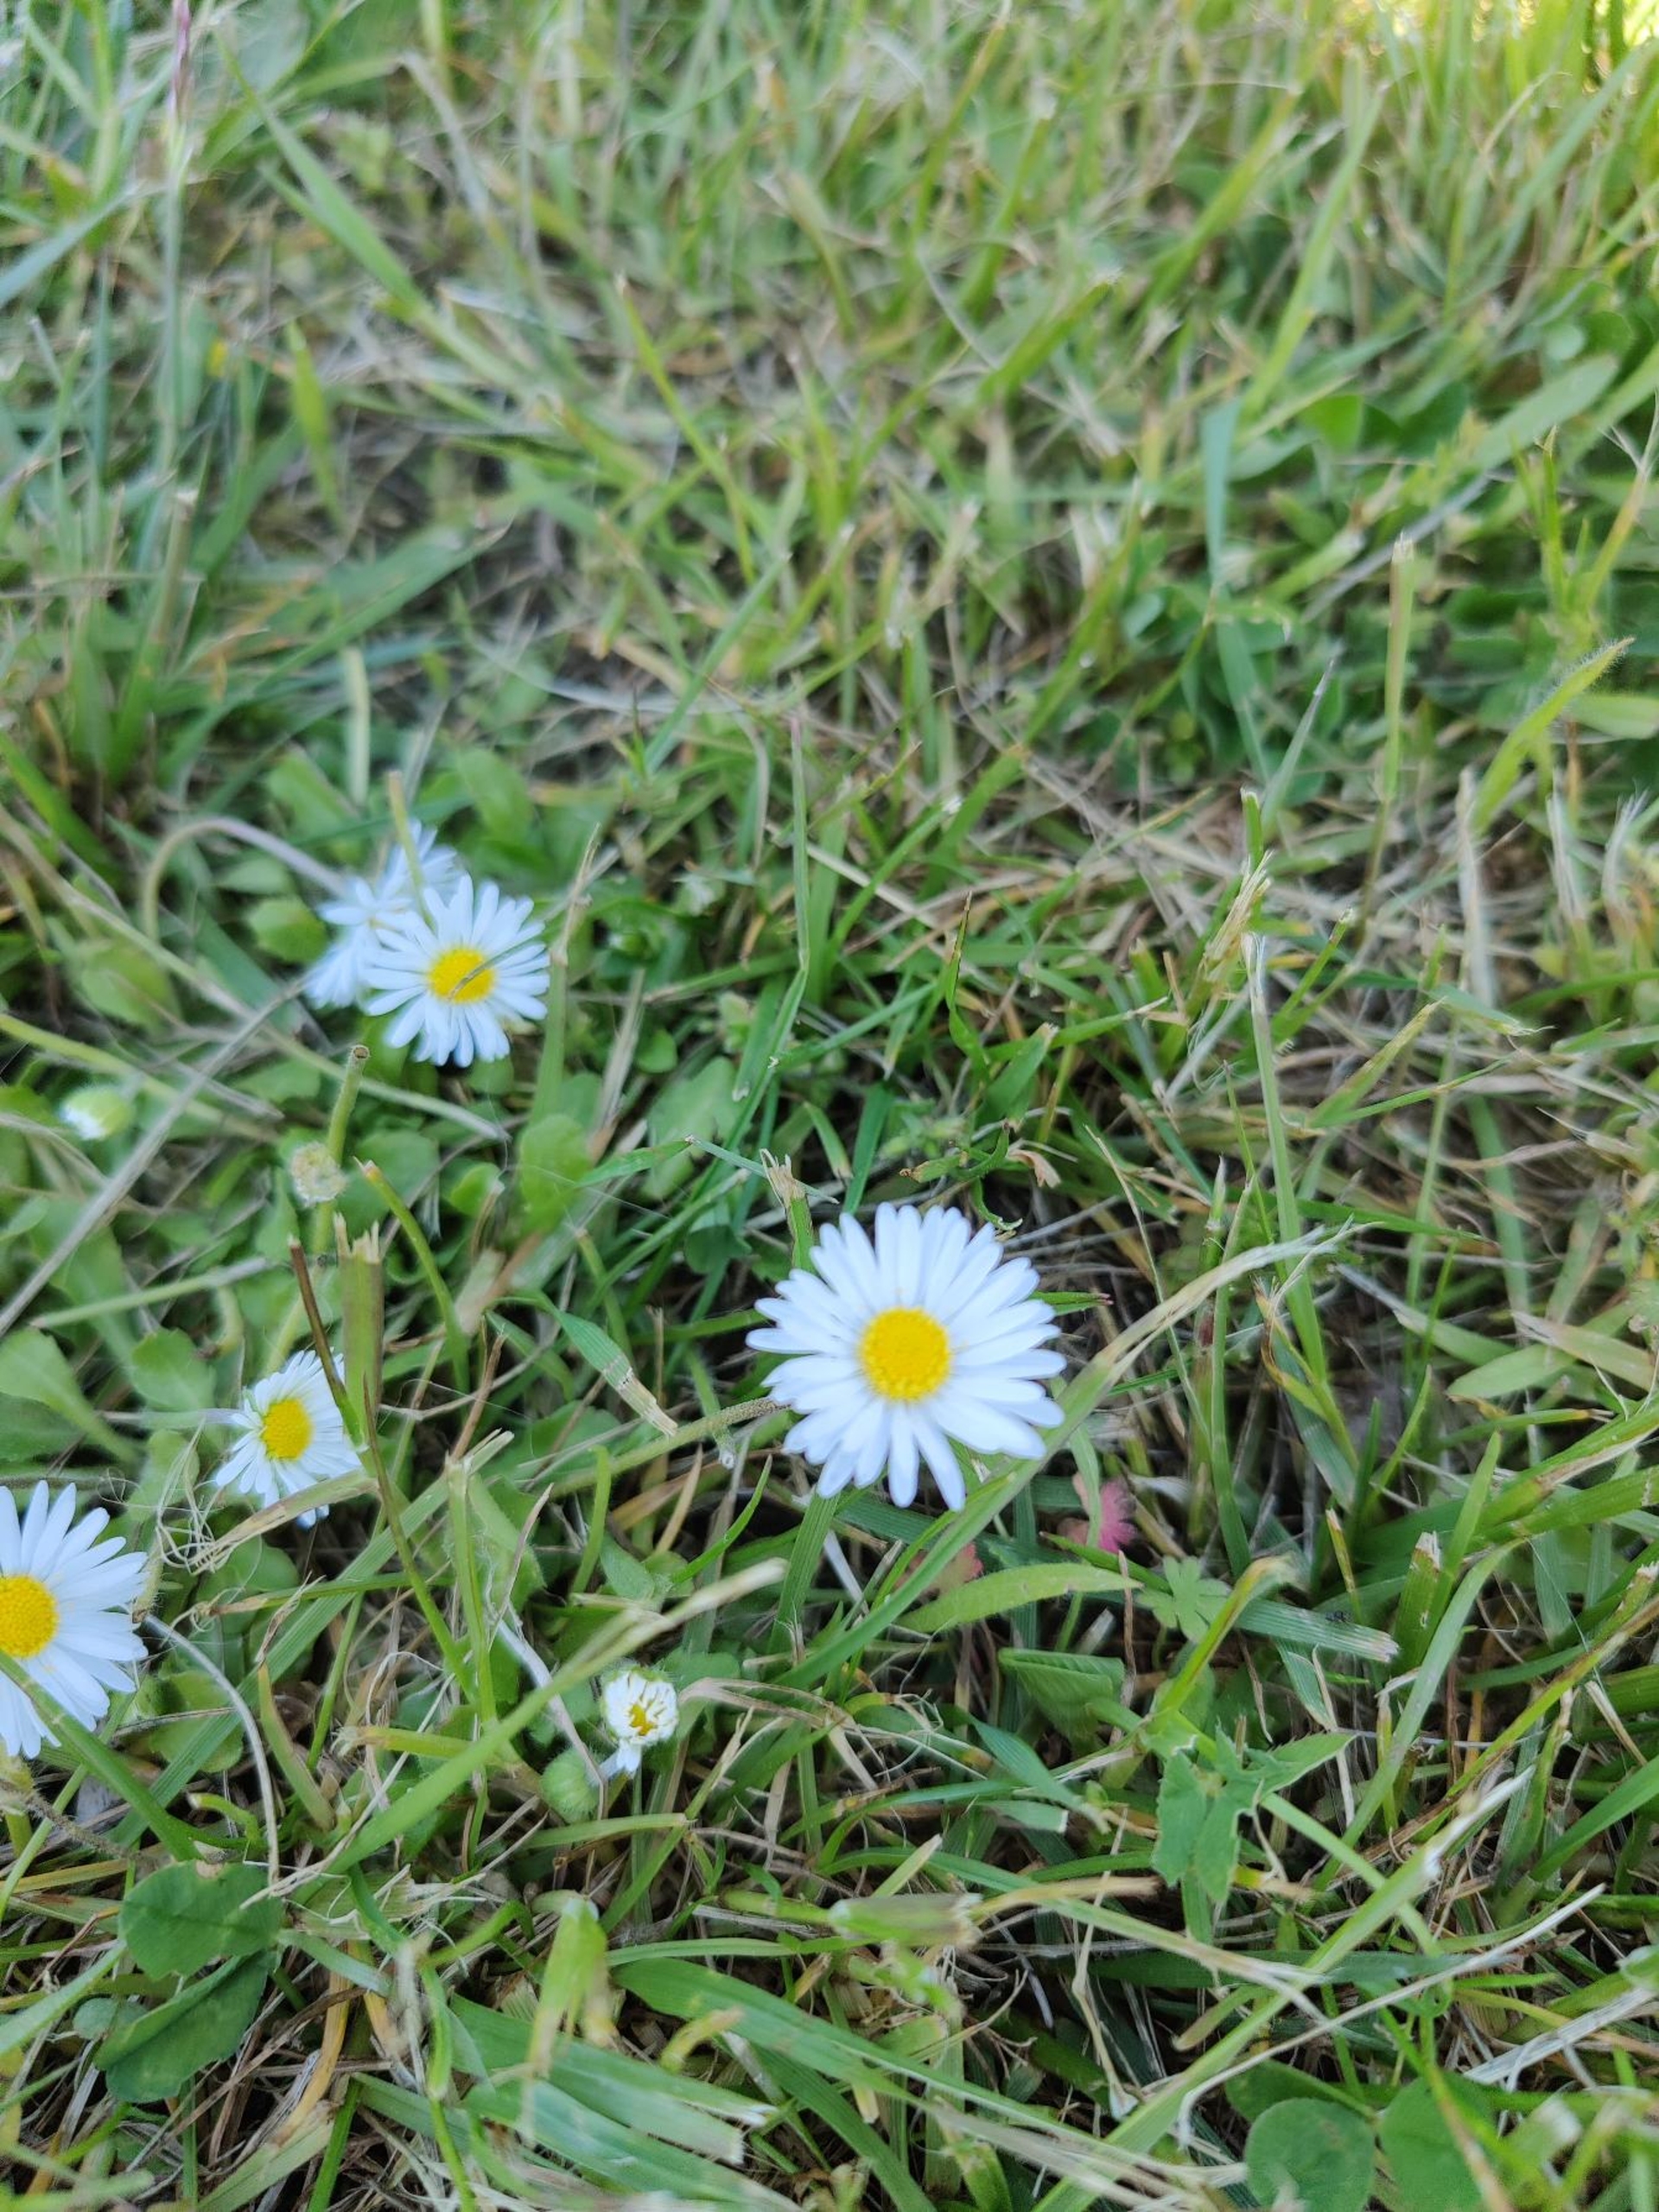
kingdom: Plantae
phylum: Tracheophyta
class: Magnoliopsida
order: Asterales
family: Asteraceae
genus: Bellis
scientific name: Bellis perennis
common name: Tusindfryd
